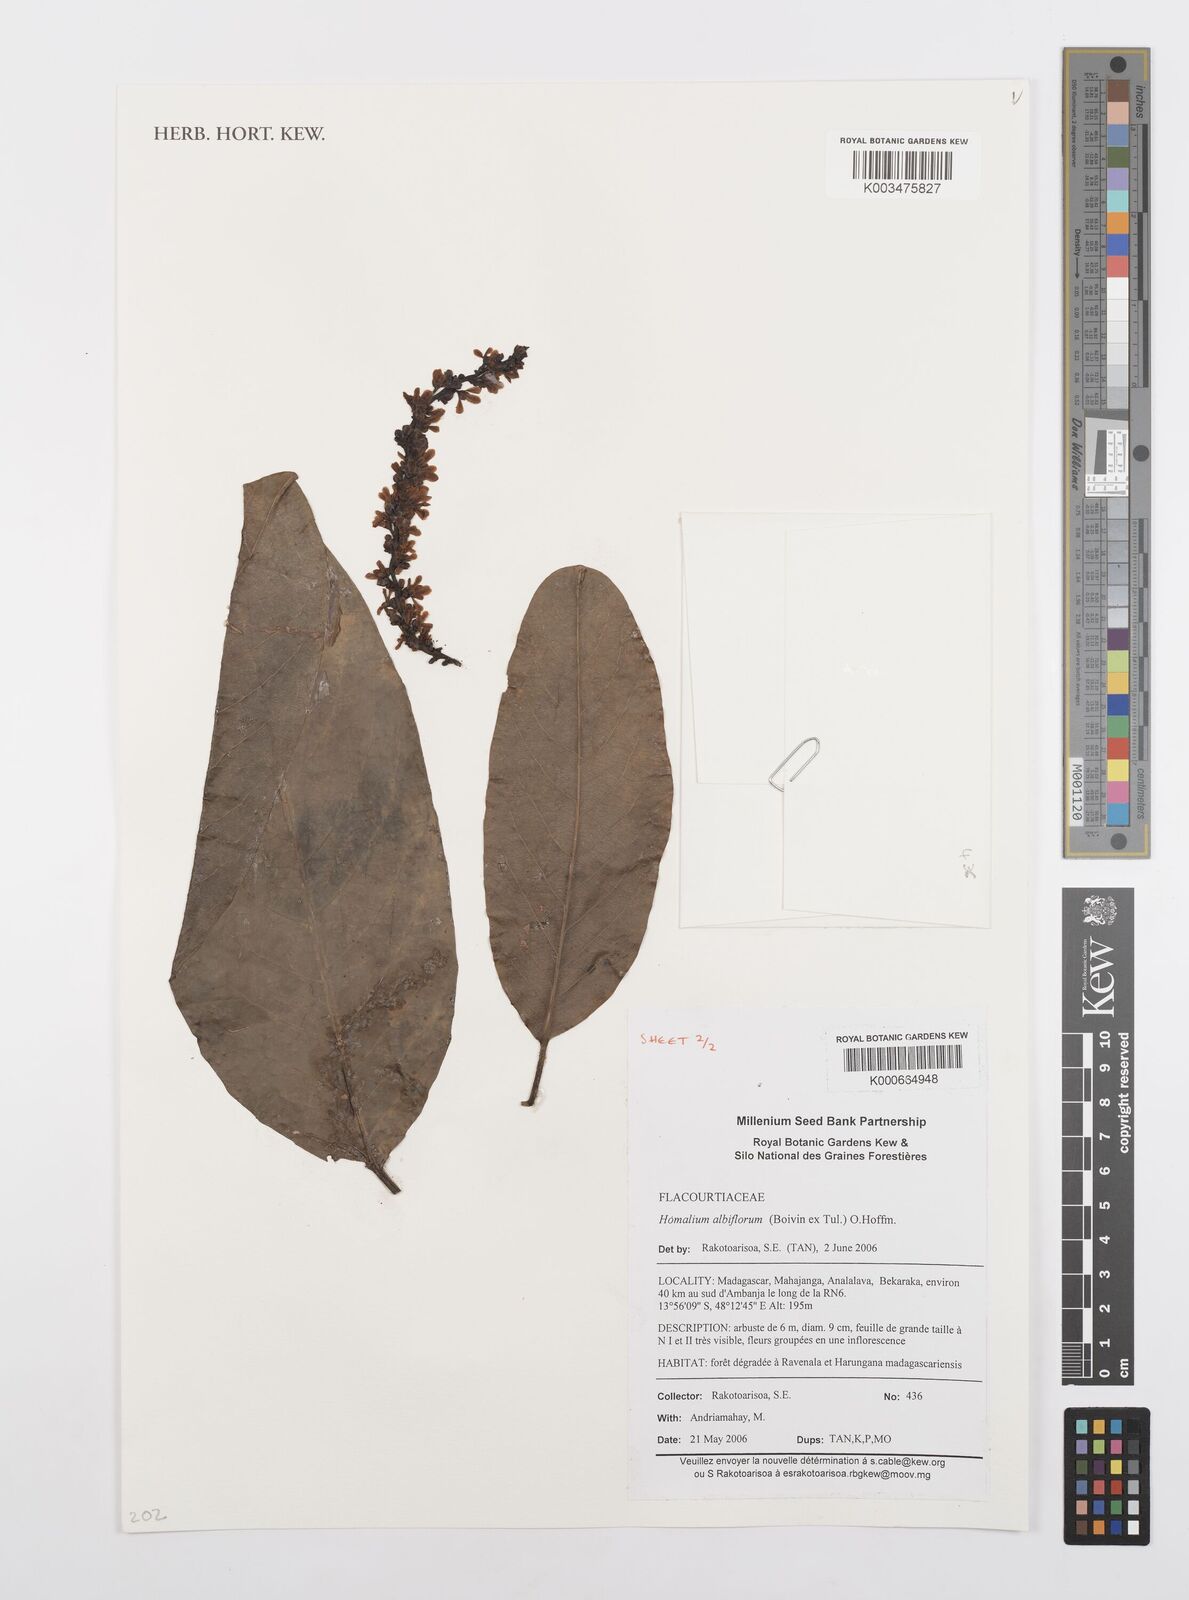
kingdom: Plantae
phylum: Tracheophyta
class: Magnoliopsida
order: Malpighiales
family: Salicaceae
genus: Homalium
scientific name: Homalium albiflorum
